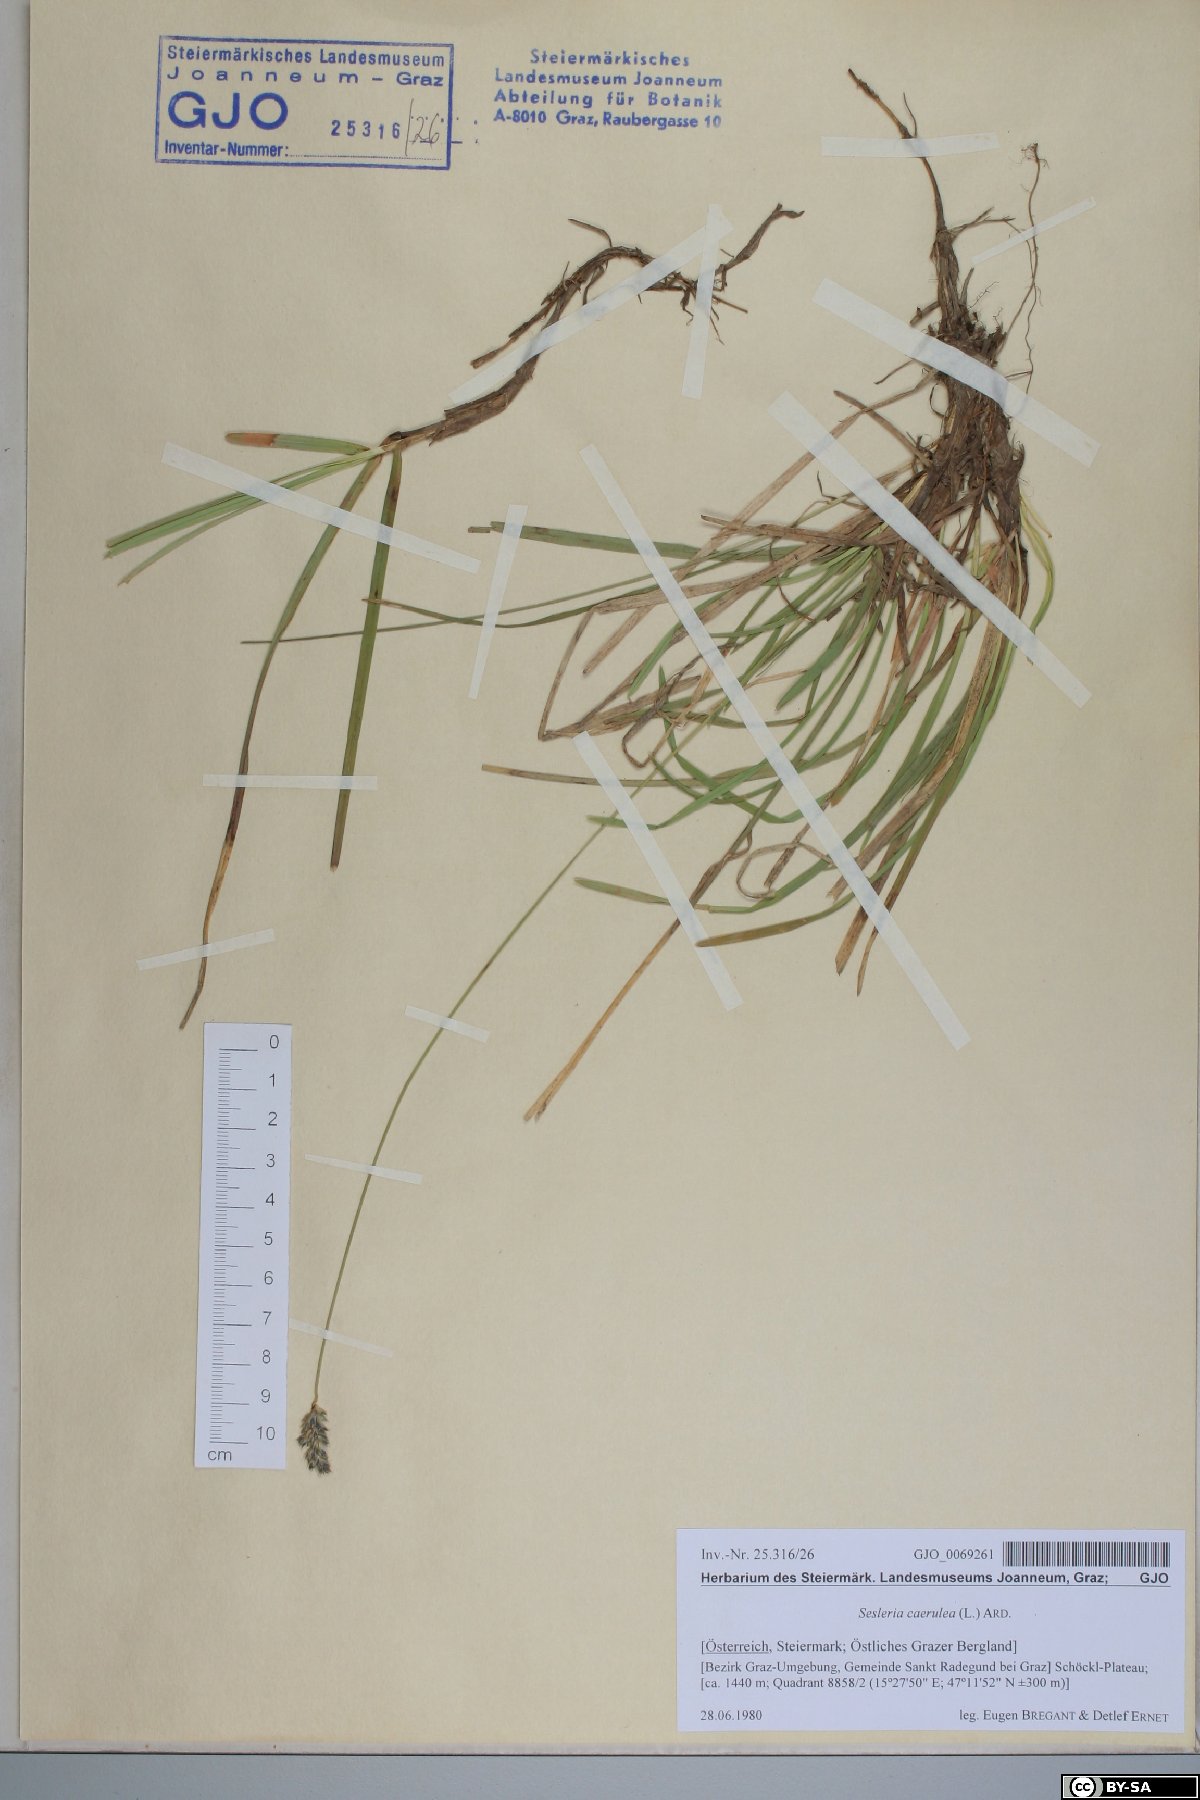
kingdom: Plantae
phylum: Tracheophyta
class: Liliopsida
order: Poales
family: Poaceae
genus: Sesleria
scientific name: Sesleria caerulea
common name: Blue moor-grass
